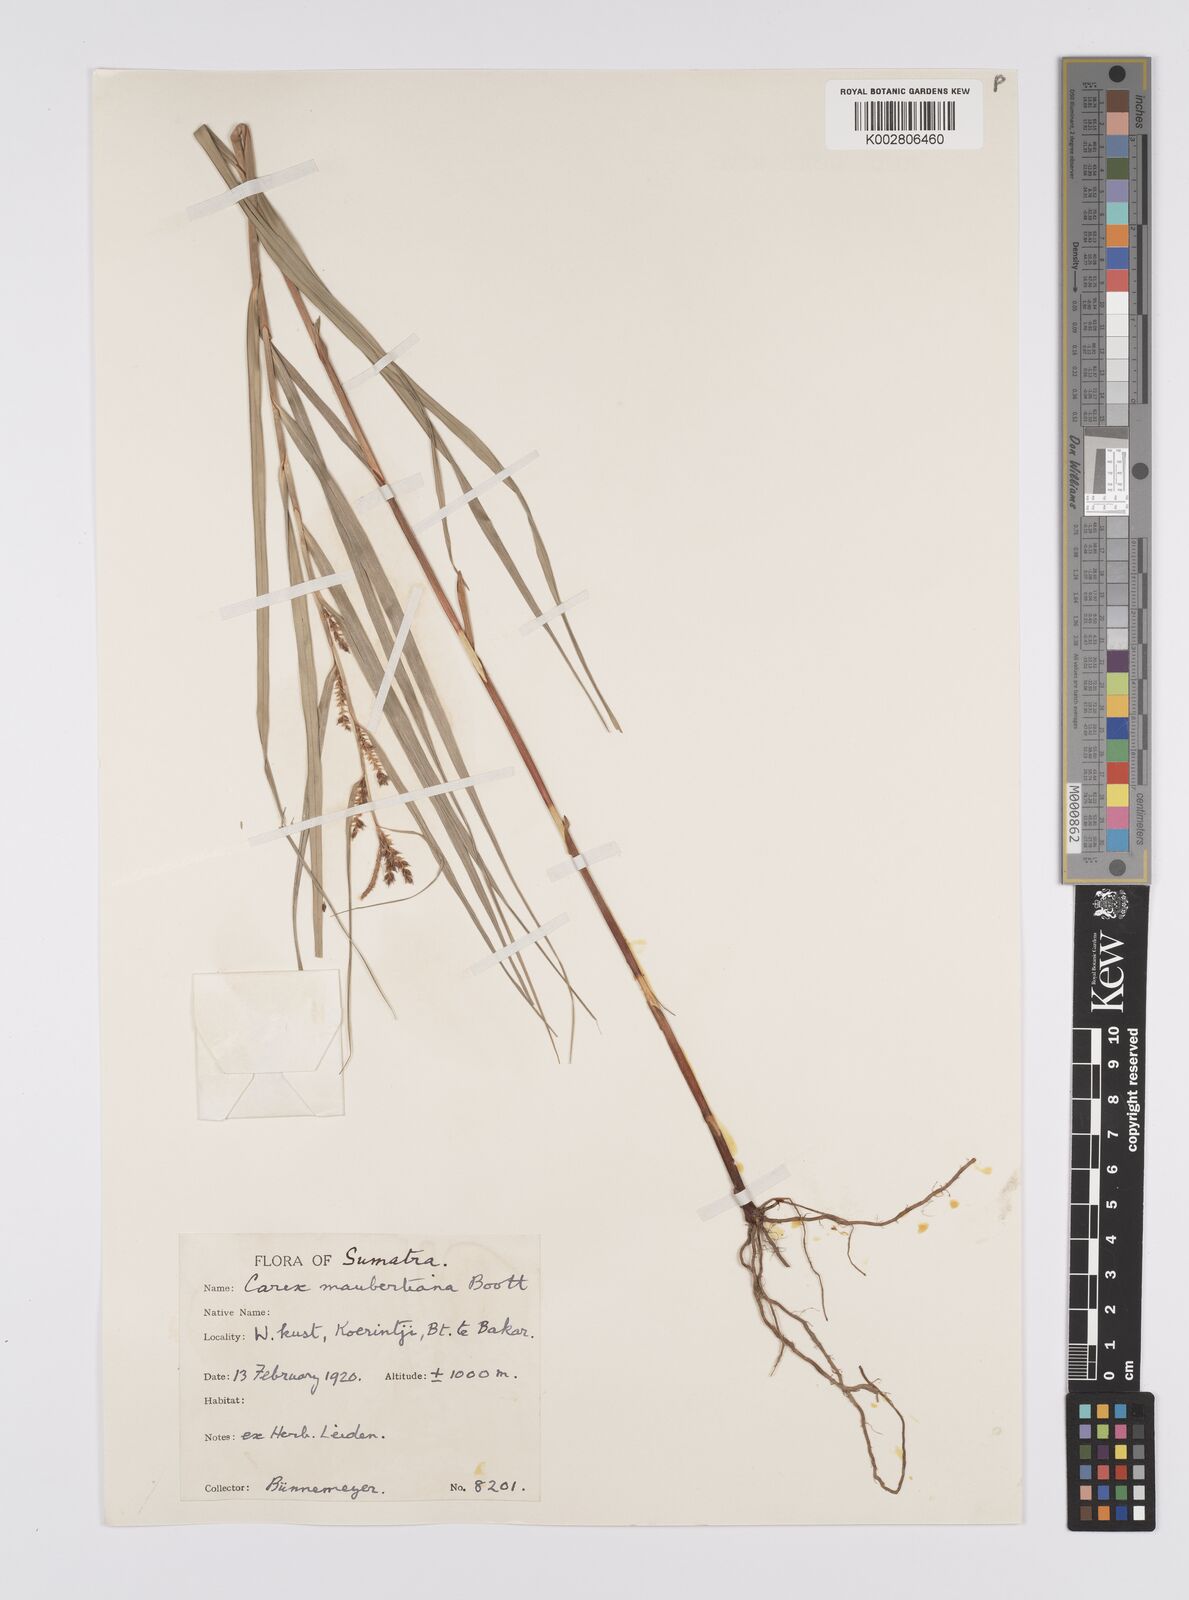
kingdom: Plantae
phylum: Tracheophyta
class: Liliopsida
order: Poales
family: Cyperaceae
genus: Carex
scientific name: Carex maubertiana
